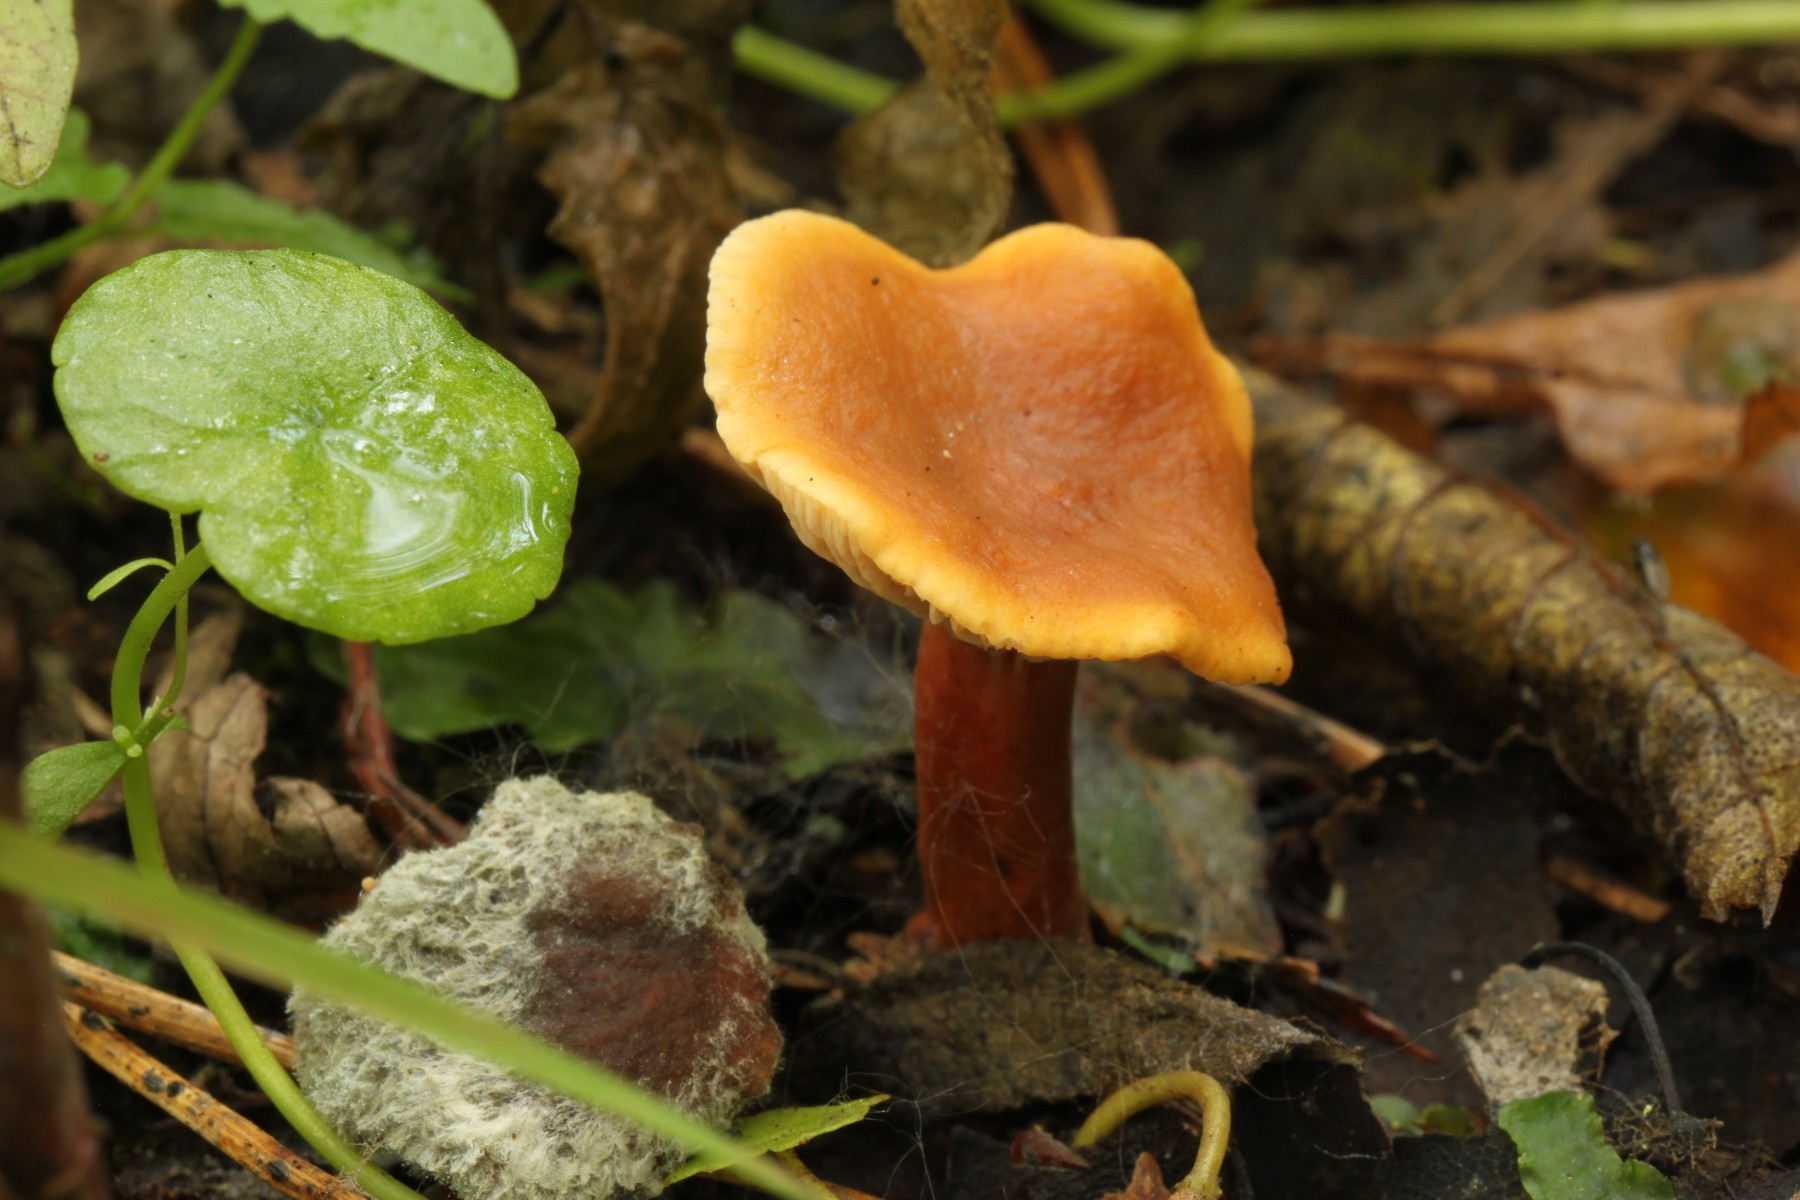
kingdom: Fungi
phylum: Basidiomycota
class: Agaricomycetes
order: Russulales
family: Russulaceae
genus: Lactarius
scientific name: Lactarius lacunarum
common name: sump-mælkehat
